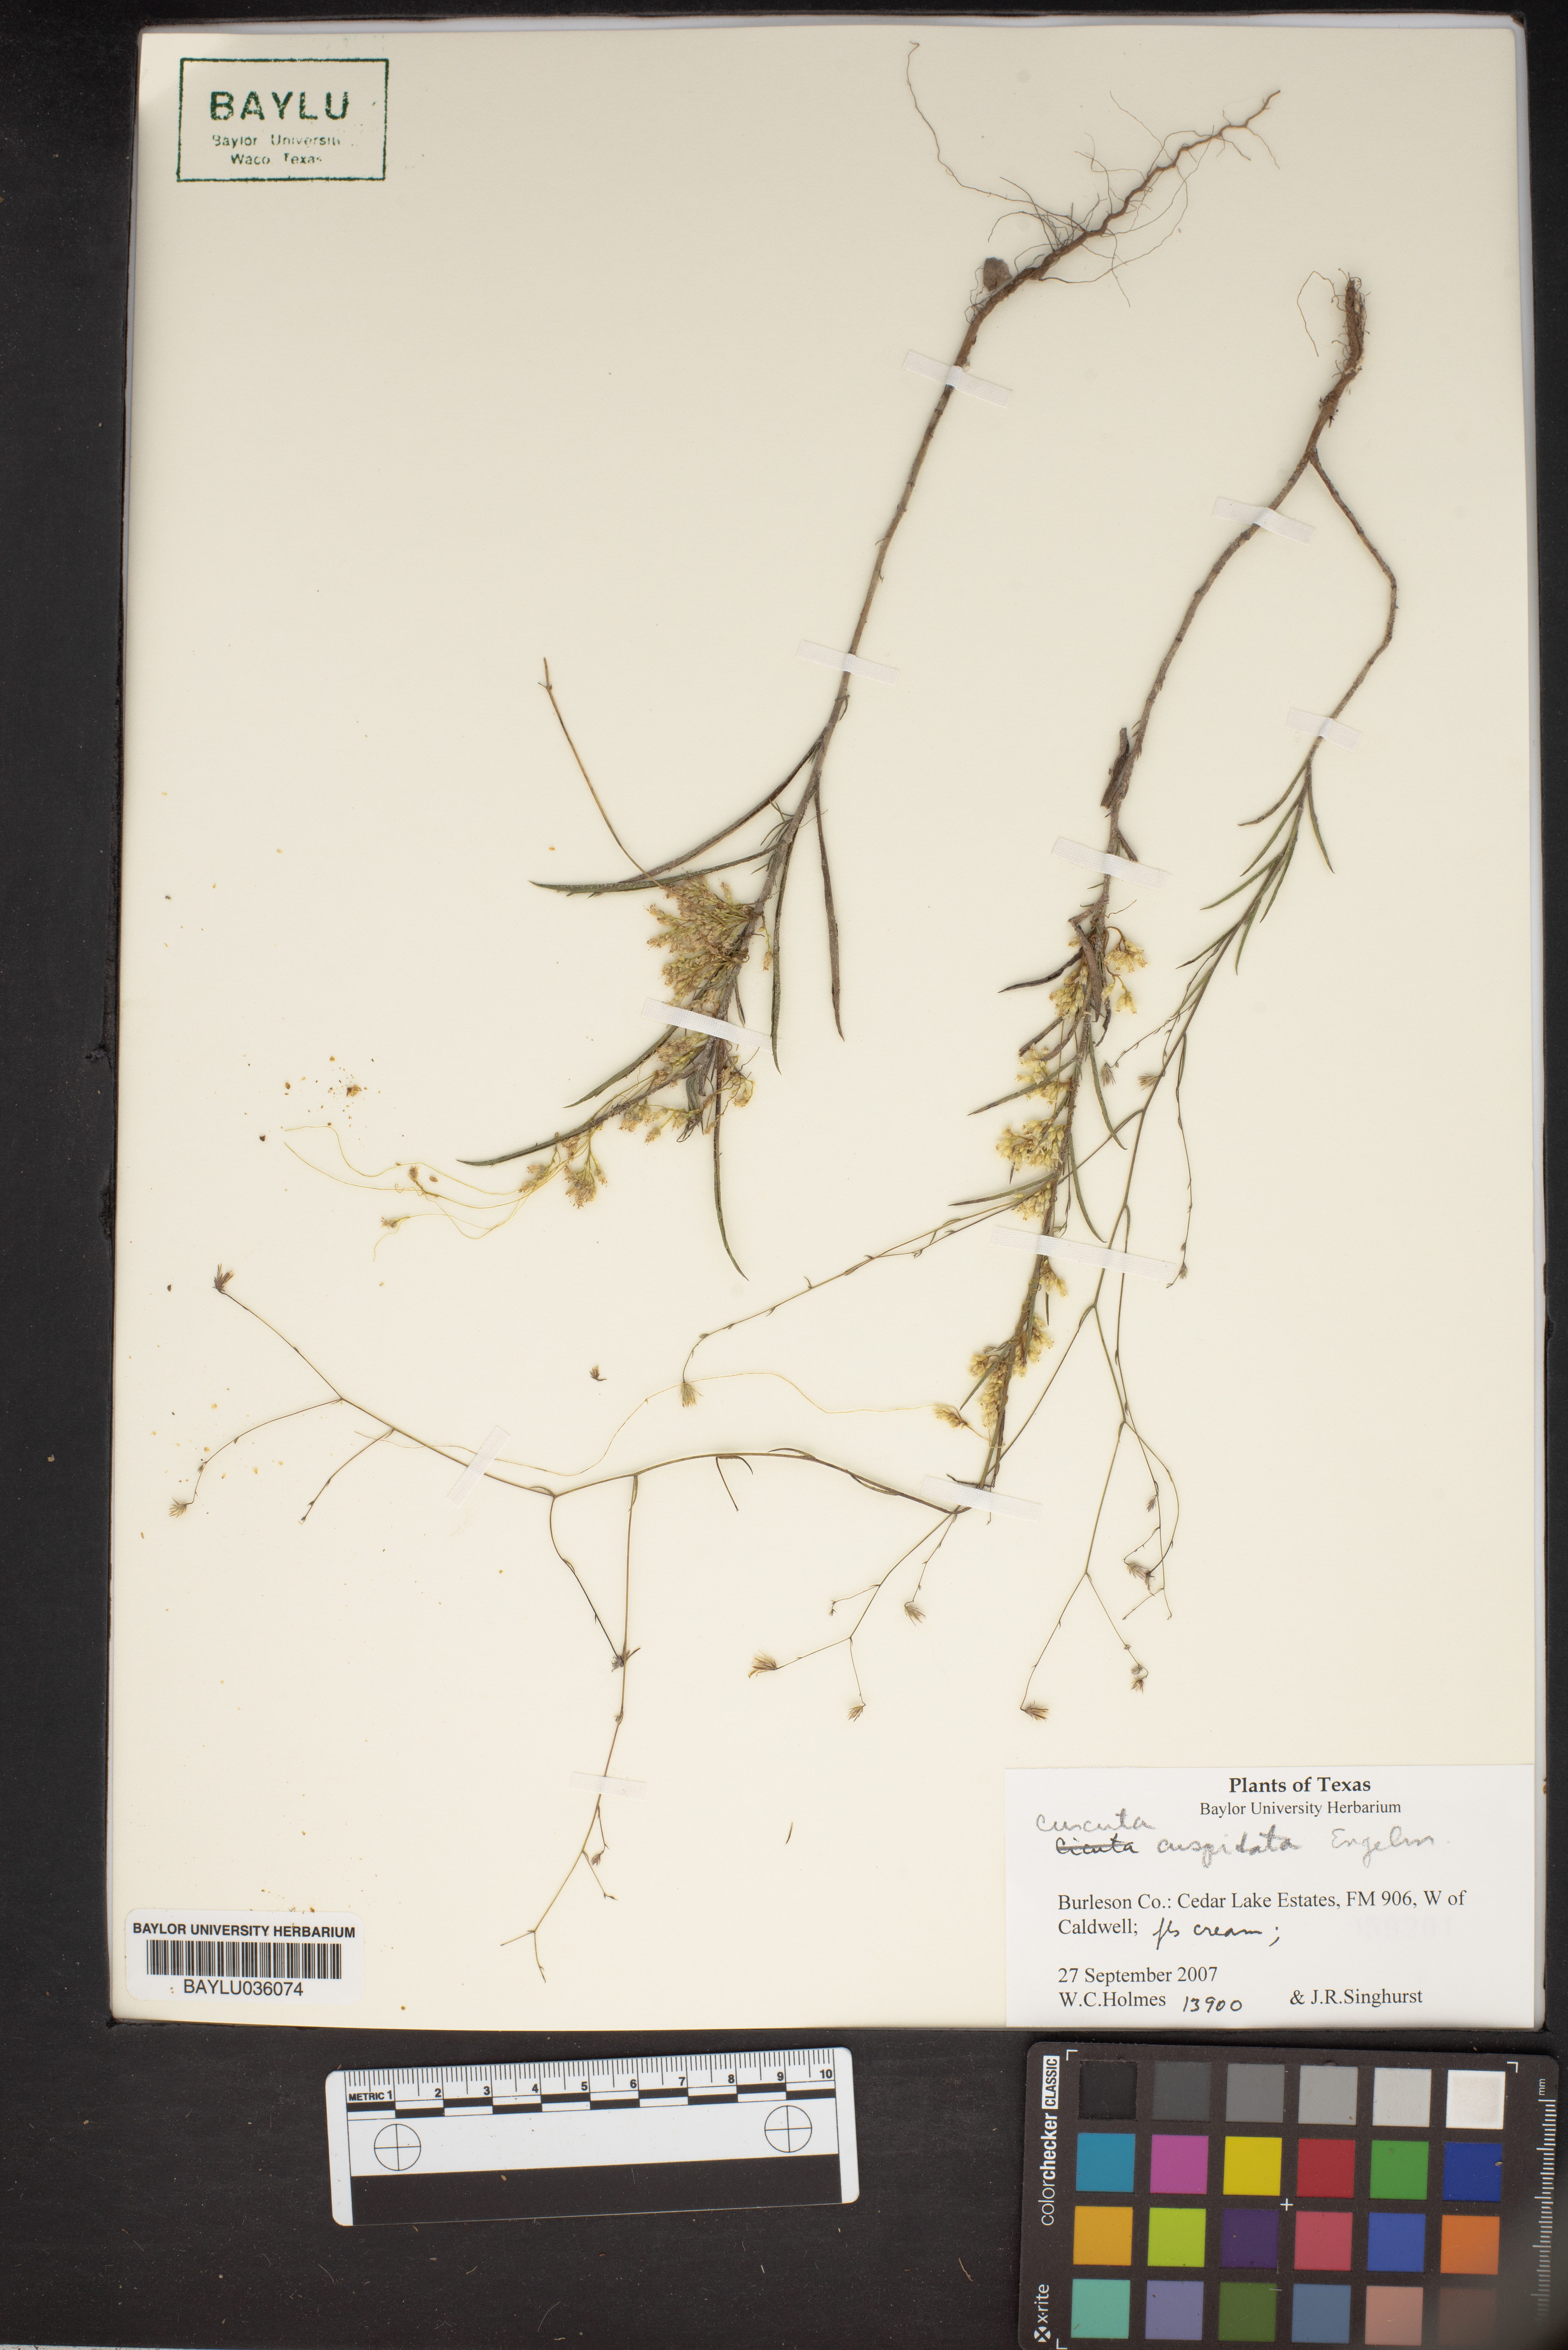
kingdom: Plantae
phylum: Tracheophyta
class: Magnoliopsida
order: Solanales
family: Convolvulaceae
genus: Cuscuta
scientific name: Cuscuta cuspidata
